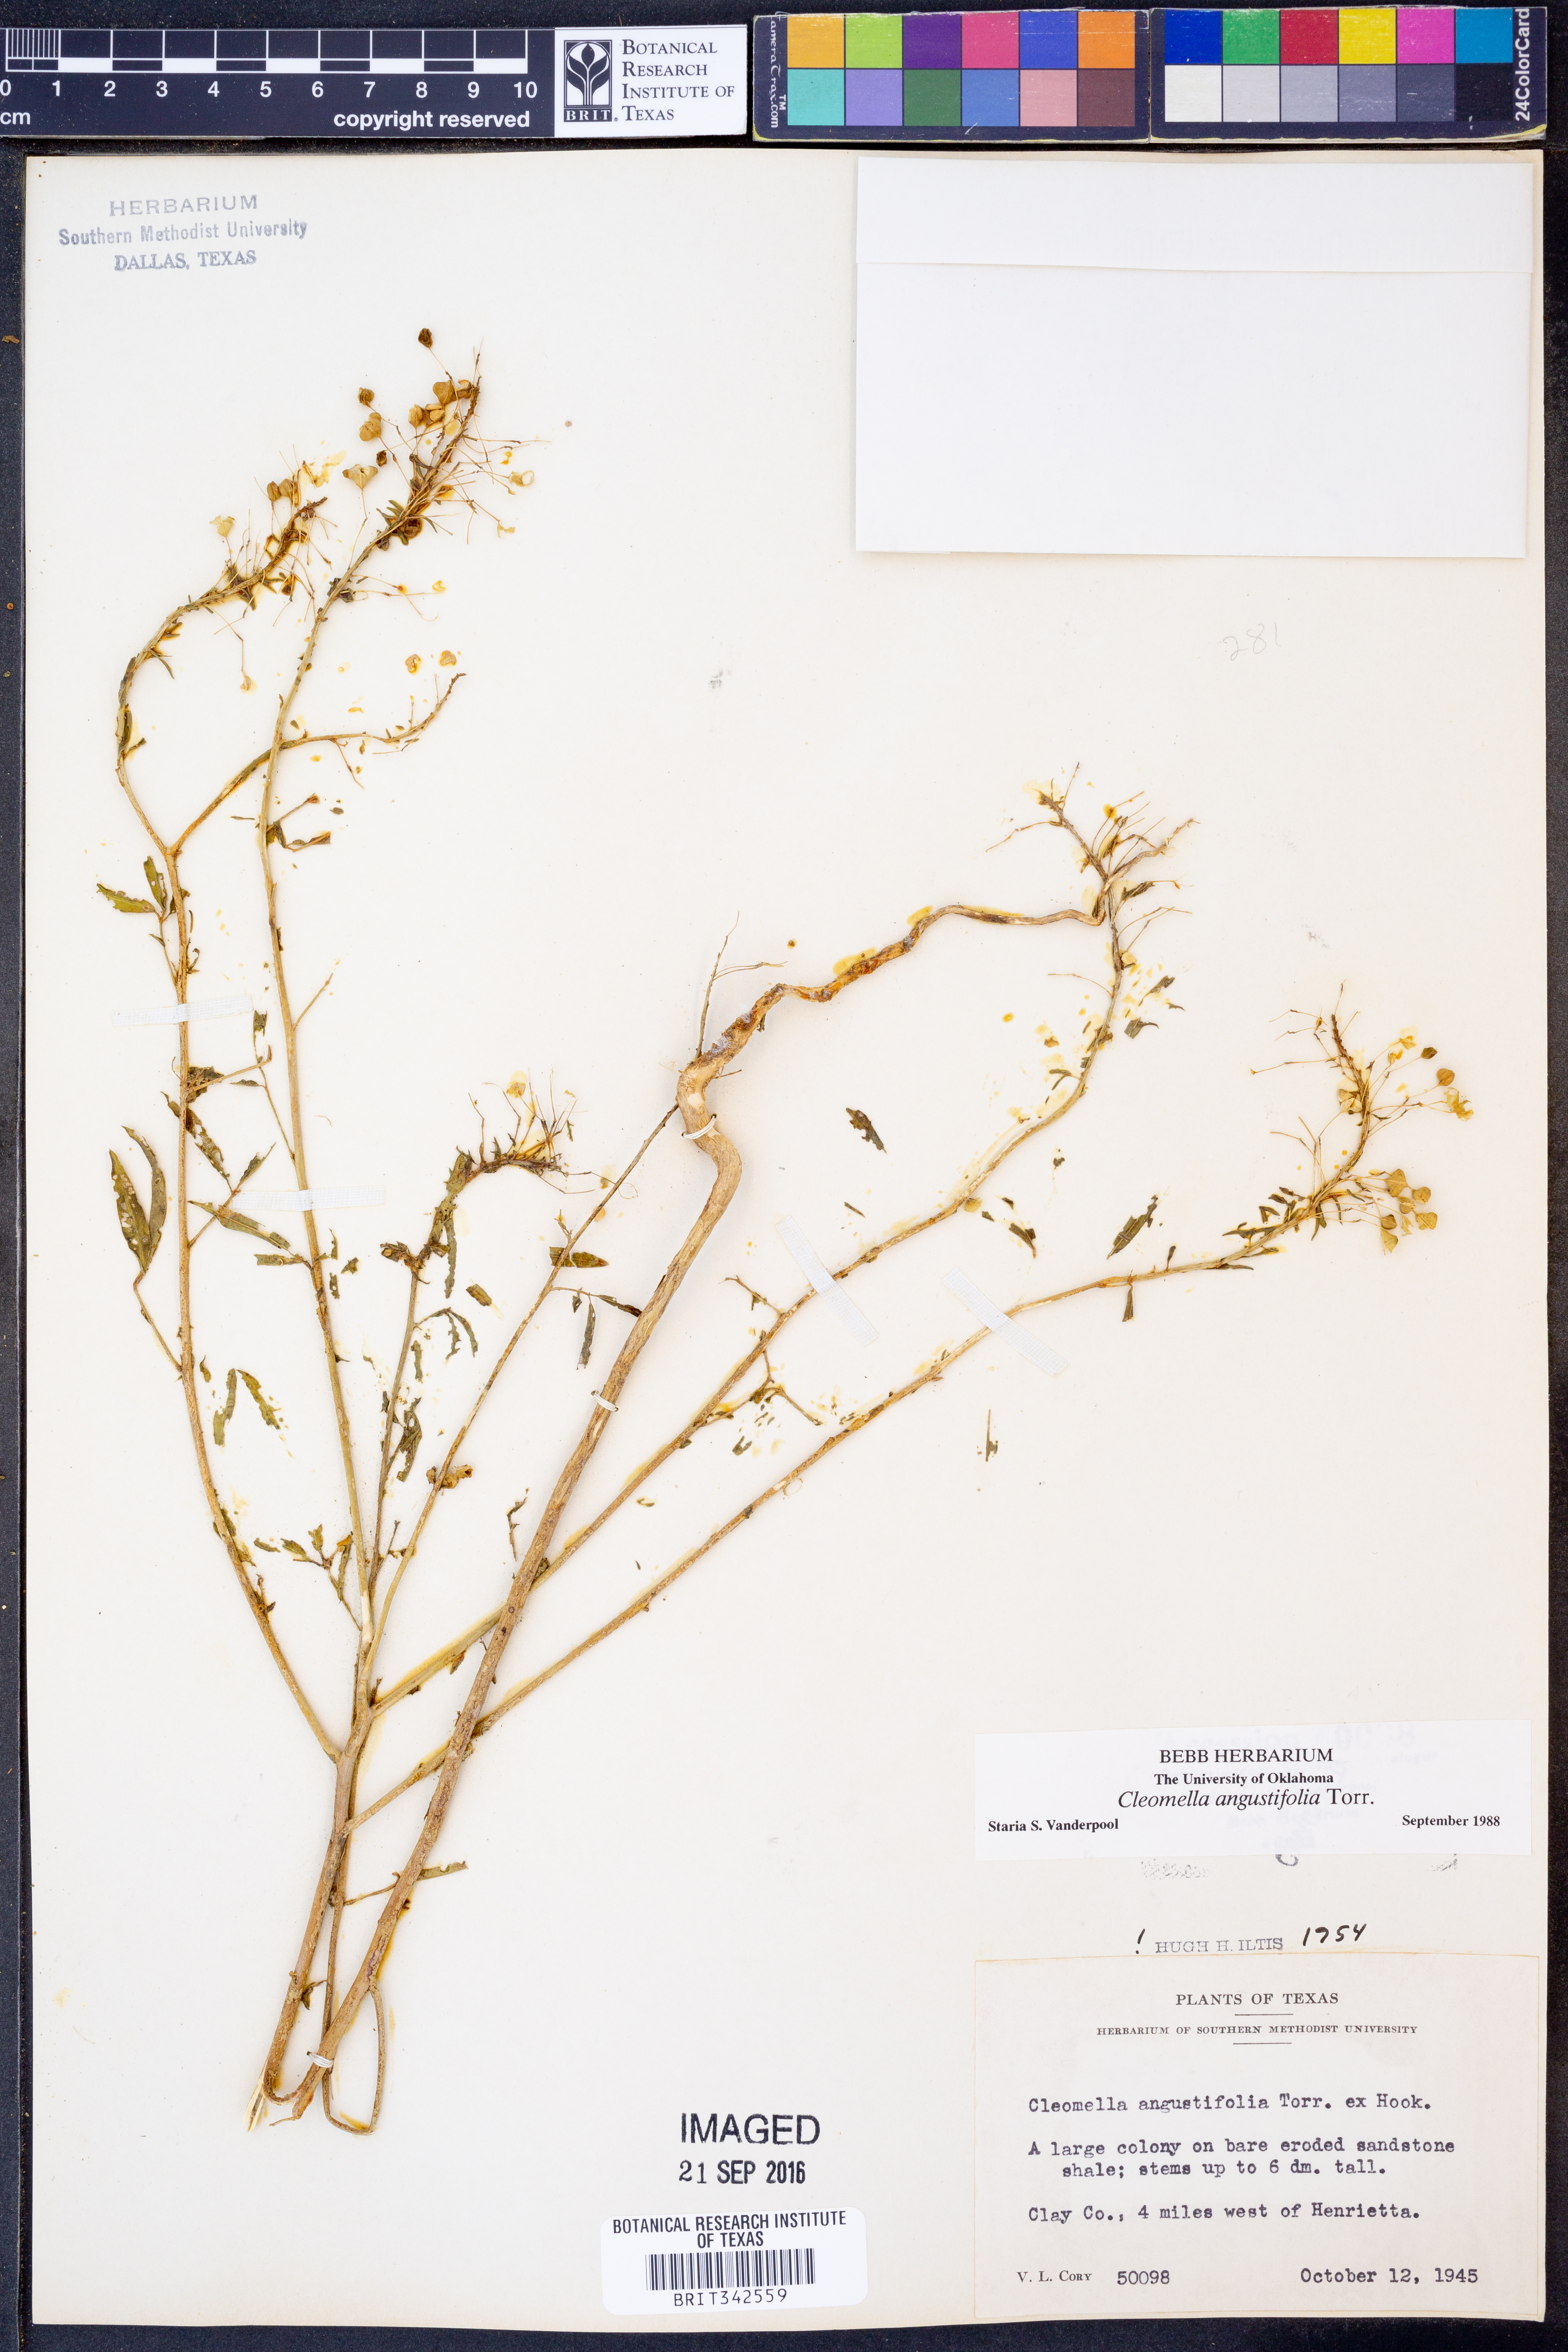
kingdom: Plantae
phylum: Tracheophyta
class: Magnoliopsida
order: Brassicales
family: Cleomaceae
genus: Cleomella
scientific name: Cleomella angustifolia
